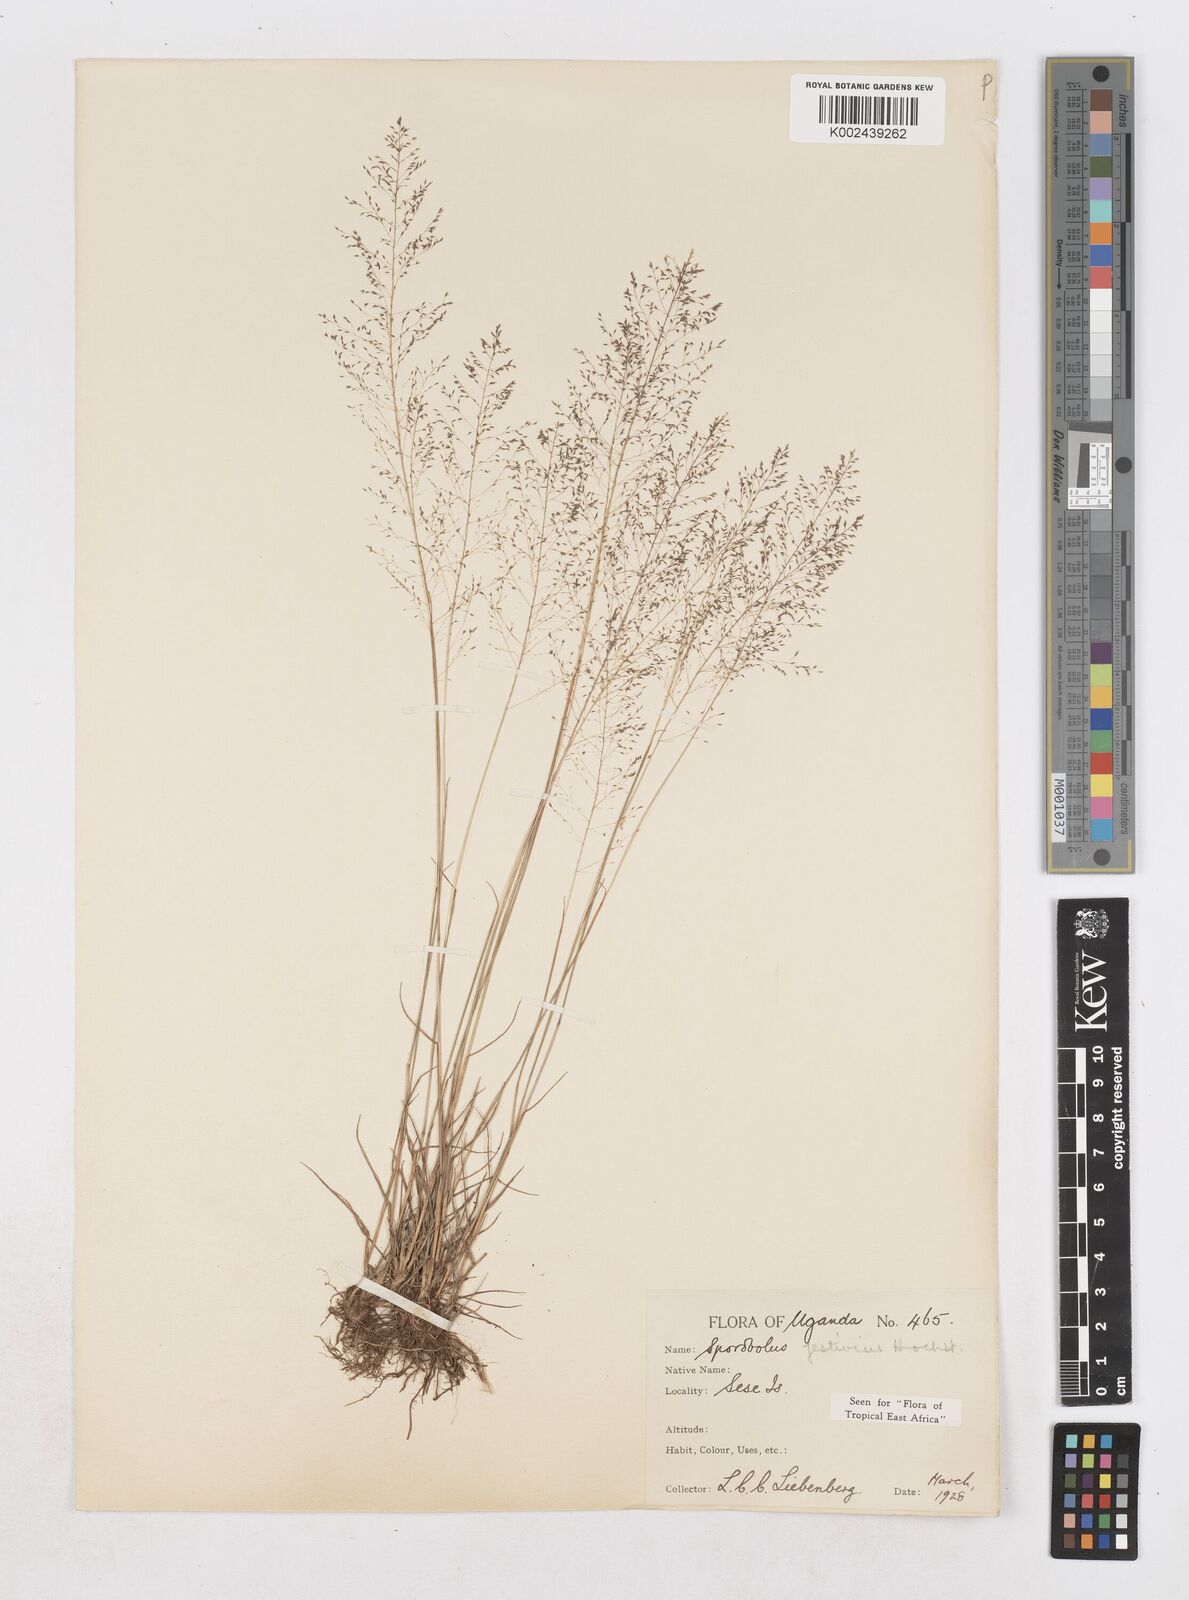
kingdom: Plantae
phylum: Tracheophyta
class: Liliopsida
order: Poales
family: Poaceae
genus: Sporobolus
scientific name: Sporobolus festivus
